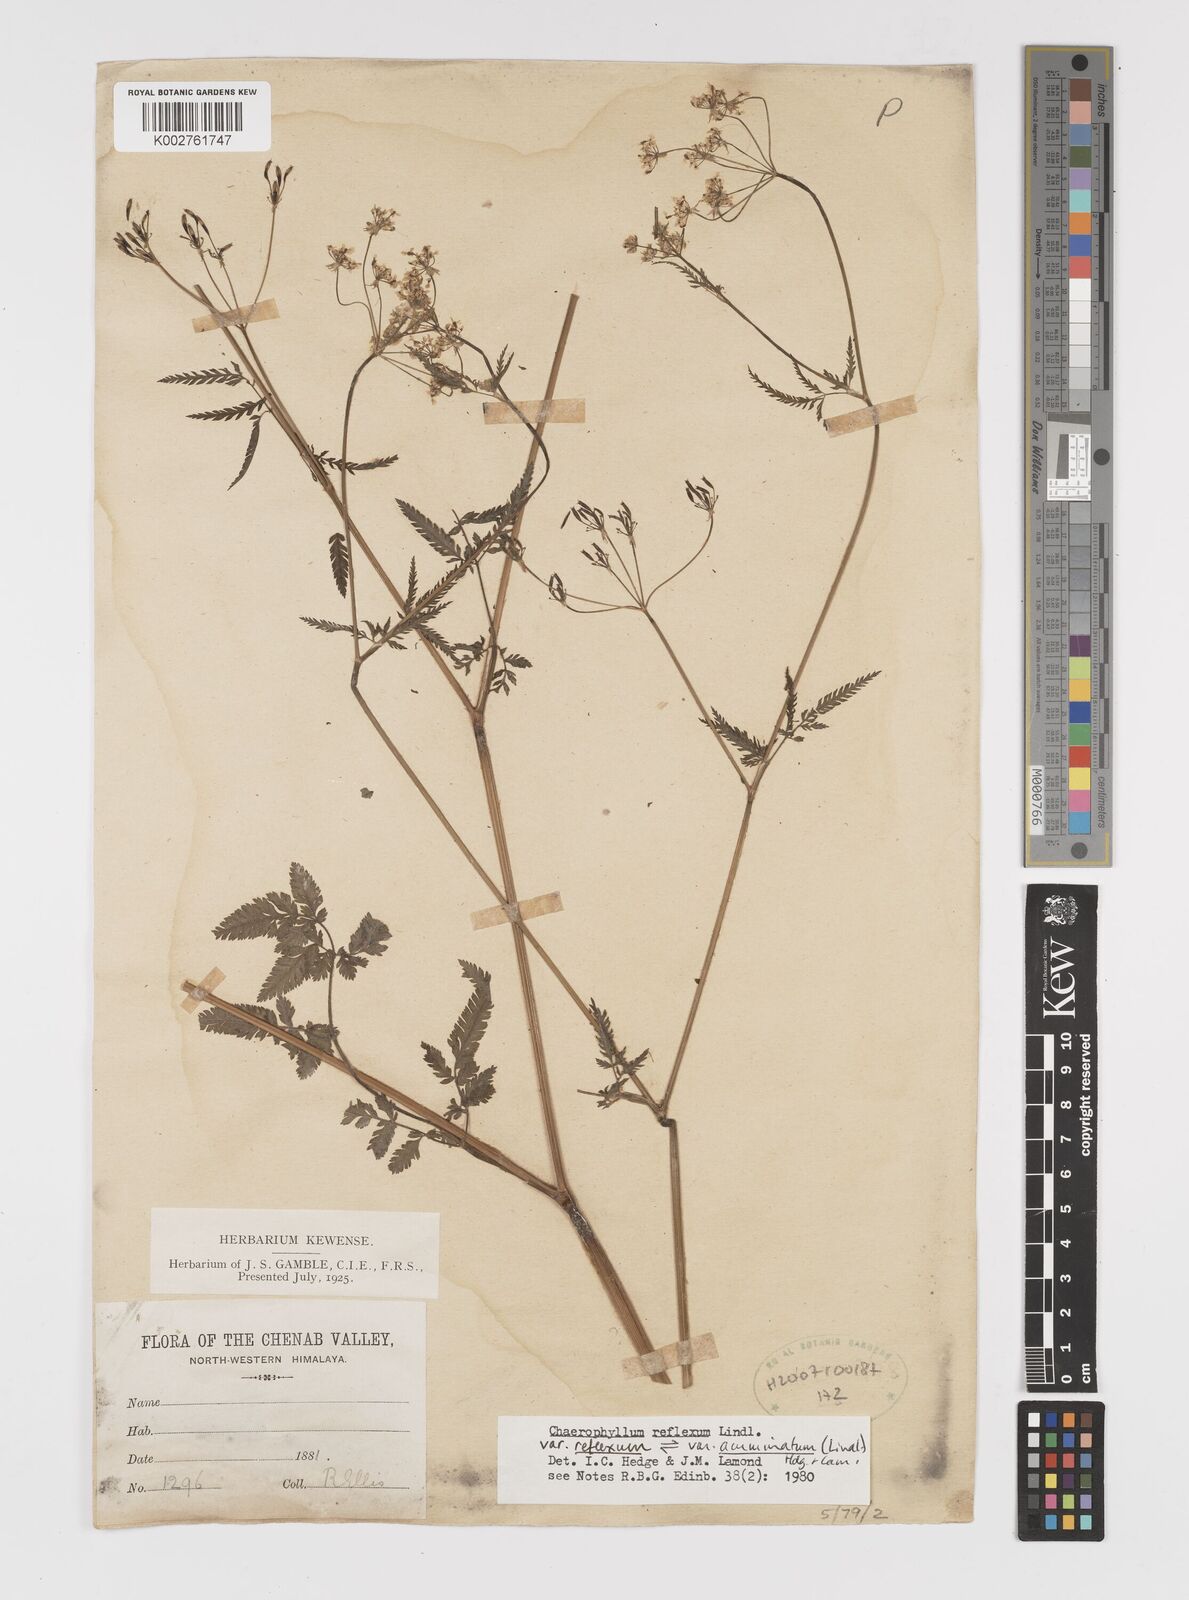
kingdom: Plantae
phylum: Tracheophyta
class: Magnoliopsida
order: Apiales
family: Apiaceae
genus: Chaerophyllum
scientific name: Chaerophyllum reflexum
